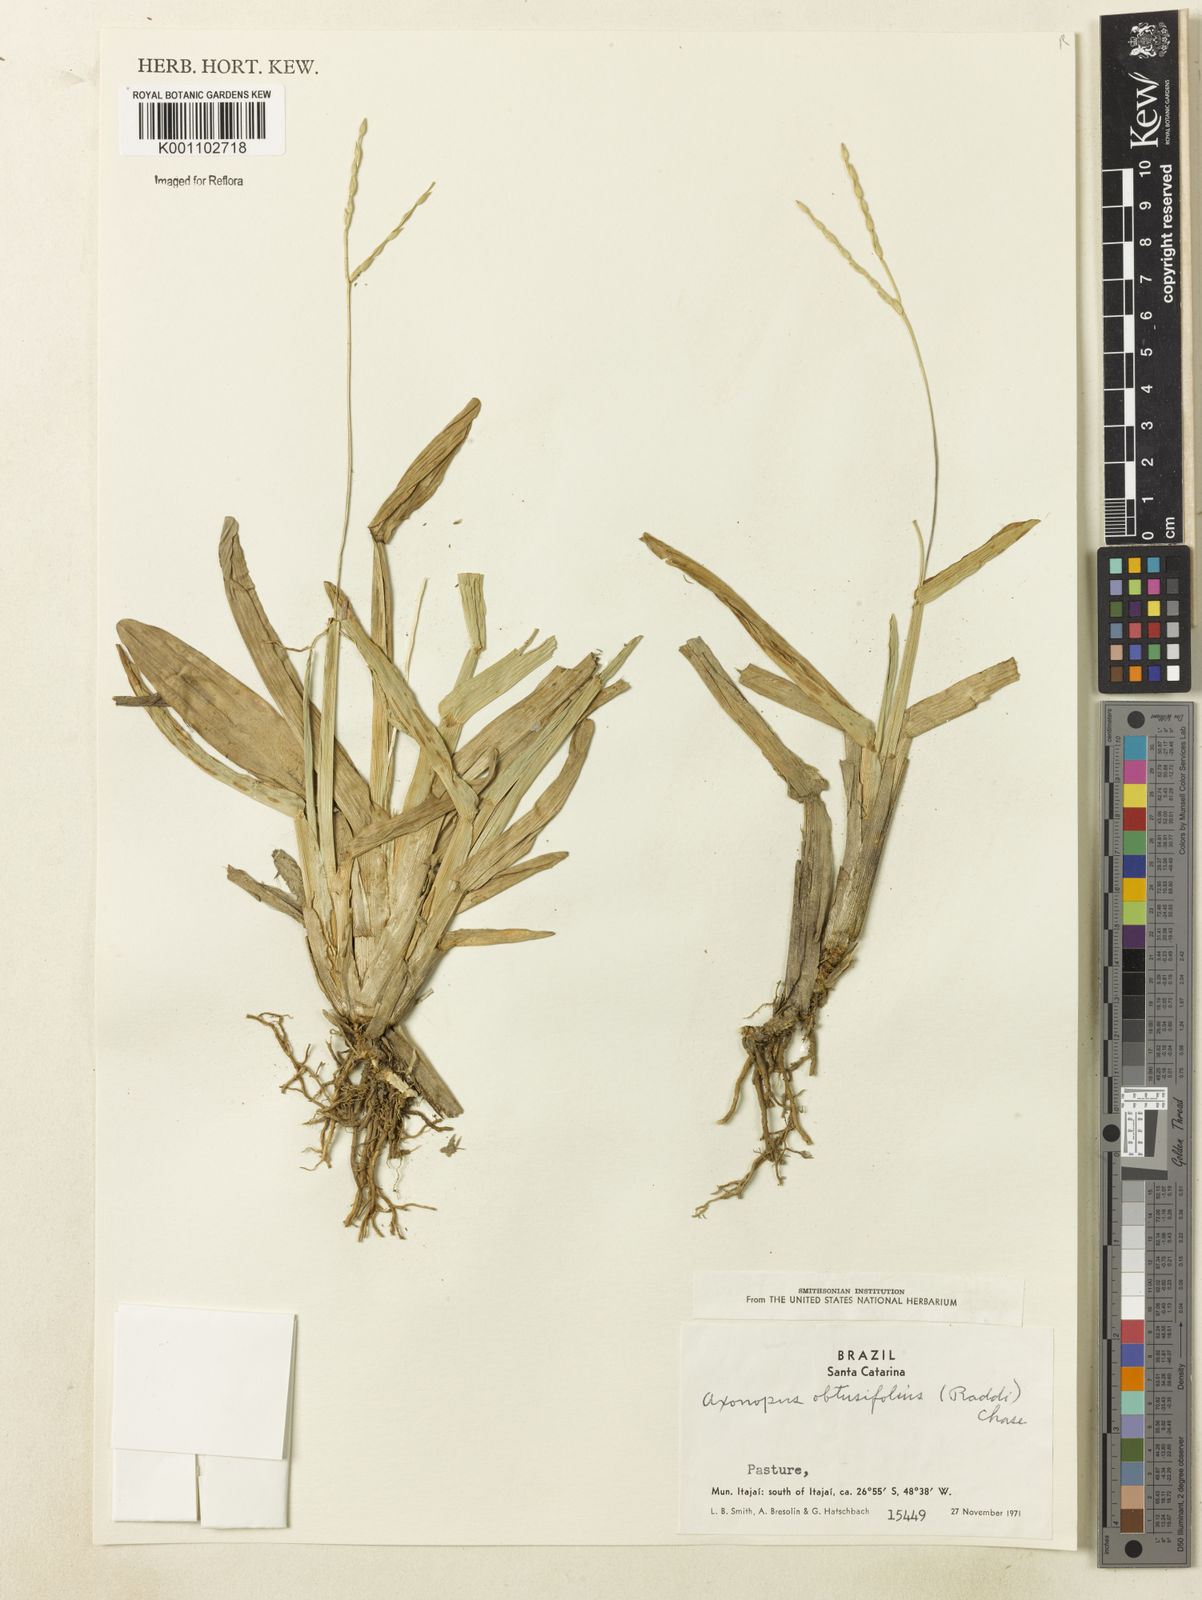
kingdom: Plantae
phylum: Tracheophyta
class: Liliopsida
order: Poales
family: Poaceae
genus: Axonopus
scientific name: Axonopus furcatus
